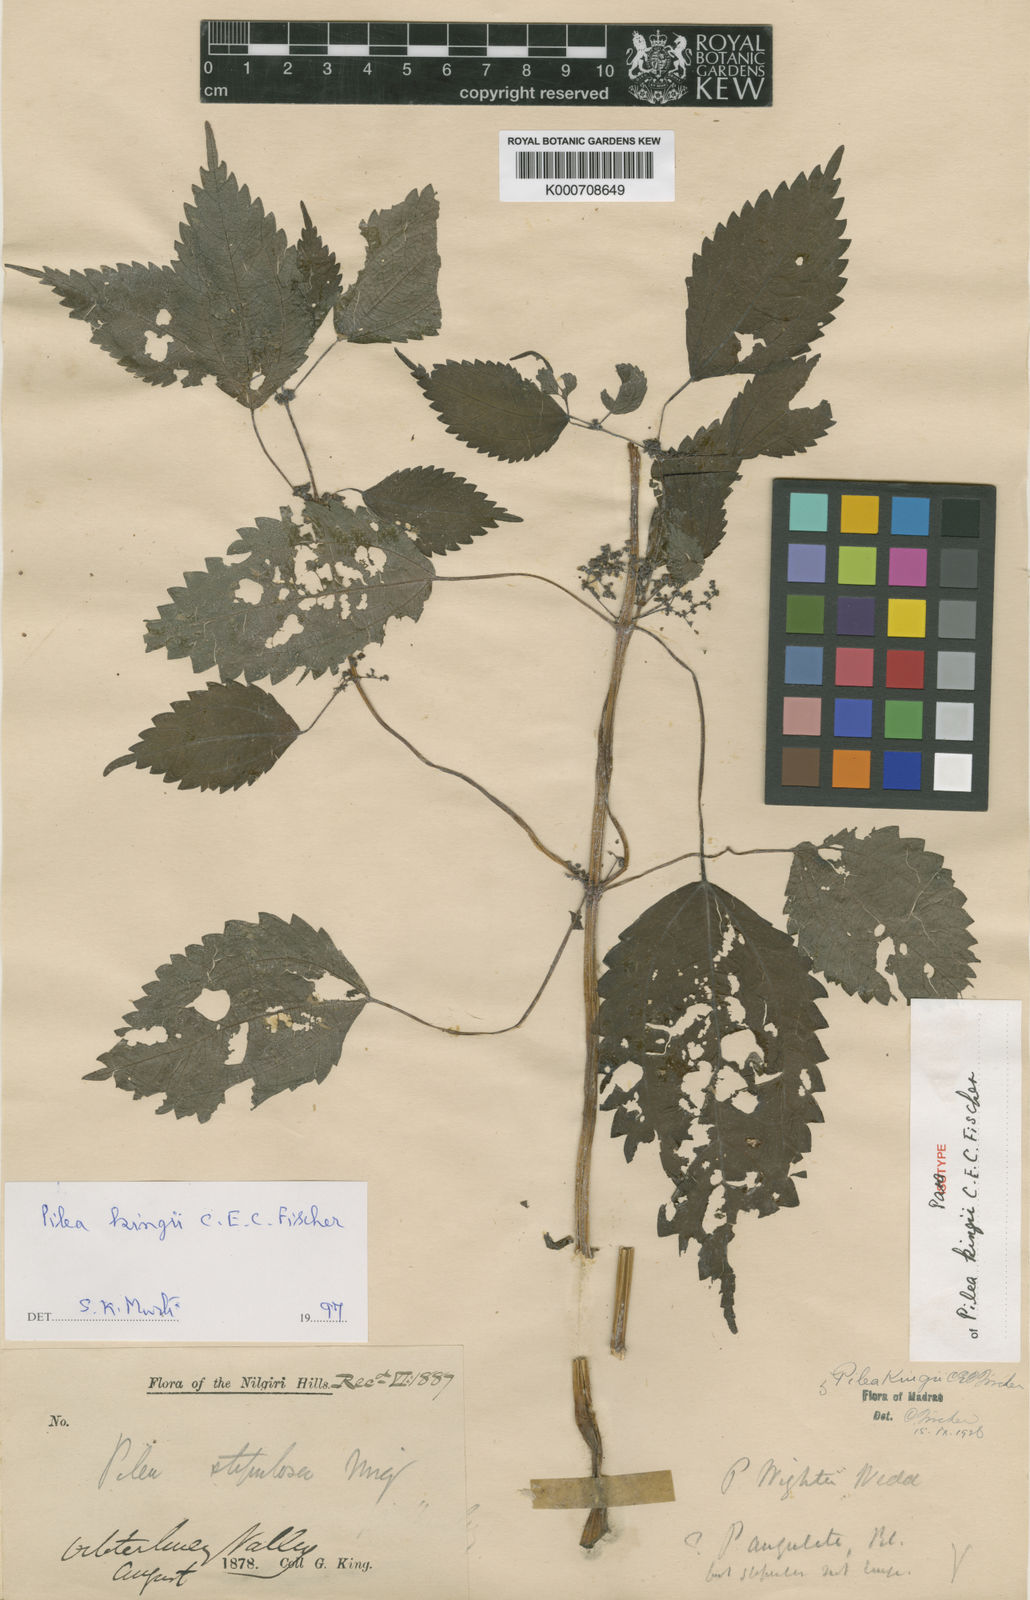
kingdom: Plantae
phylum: Tracheophyta
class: Magnoliopsida
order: Rosales
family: Urticaceae
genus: Pilea
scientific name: Pilea obesa
